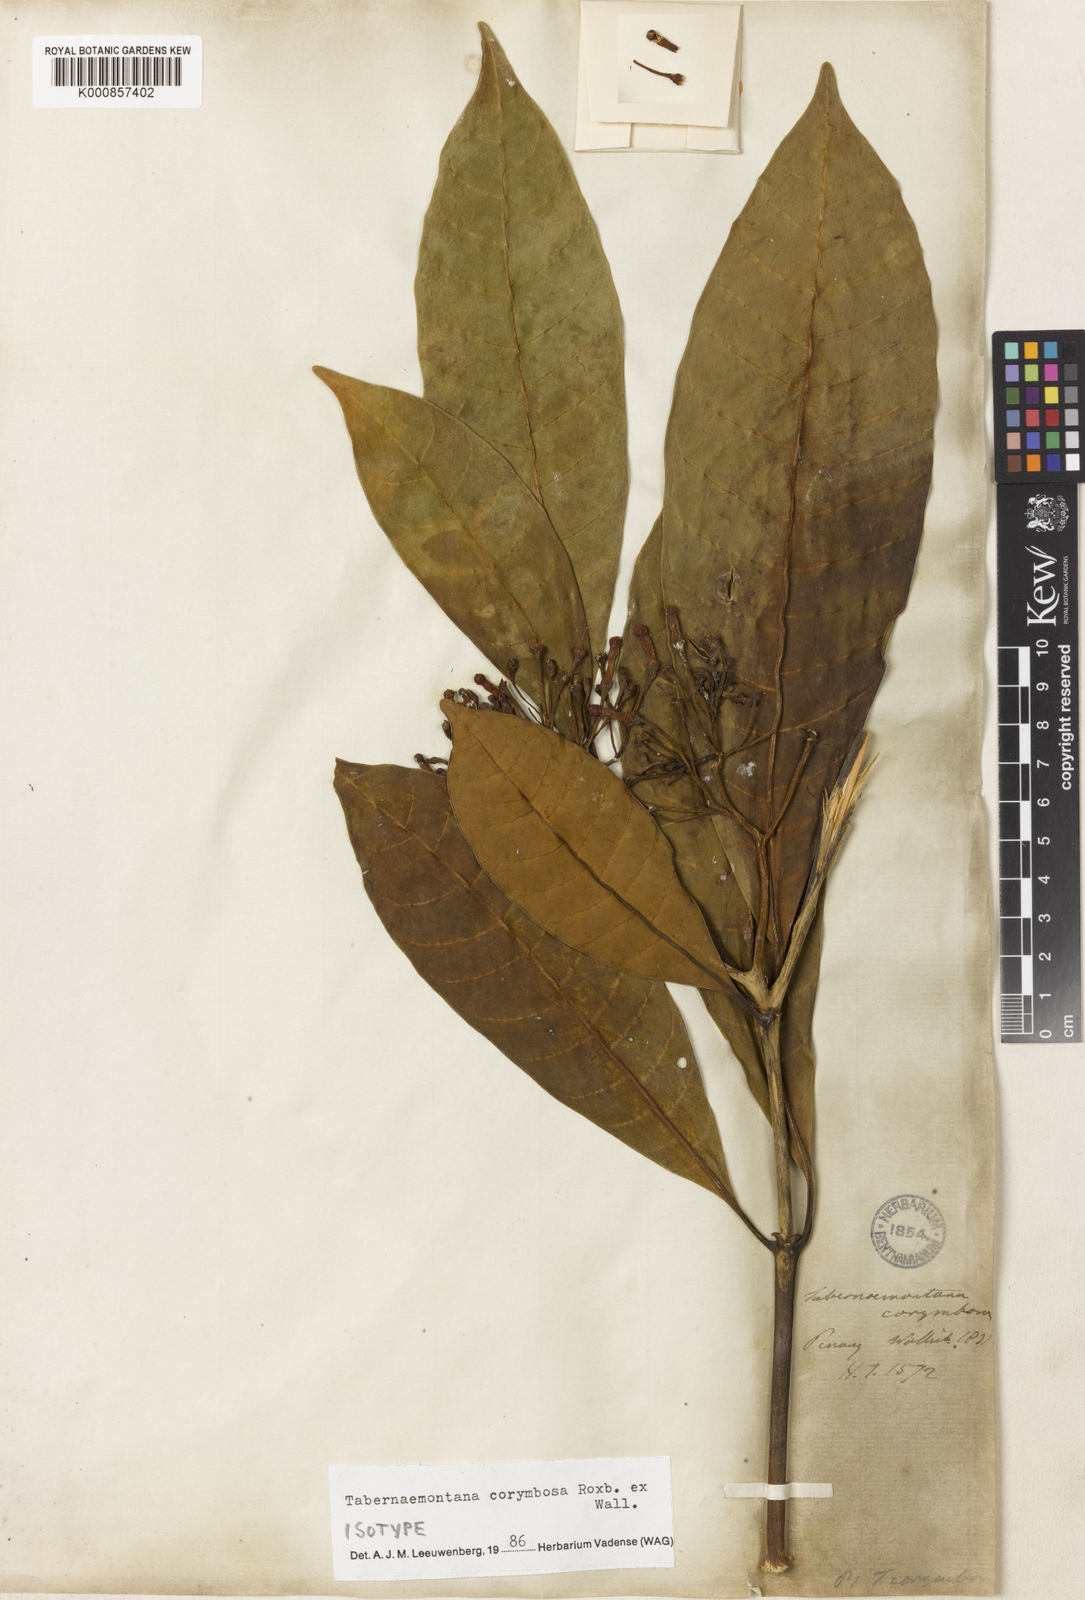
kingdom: Plantae
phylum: Tracheophyta
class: Magnoliopsida
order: Gentianales
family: Apocynaceae
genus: Tabernaemontana
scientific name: Tabernaemontana corymbosa
